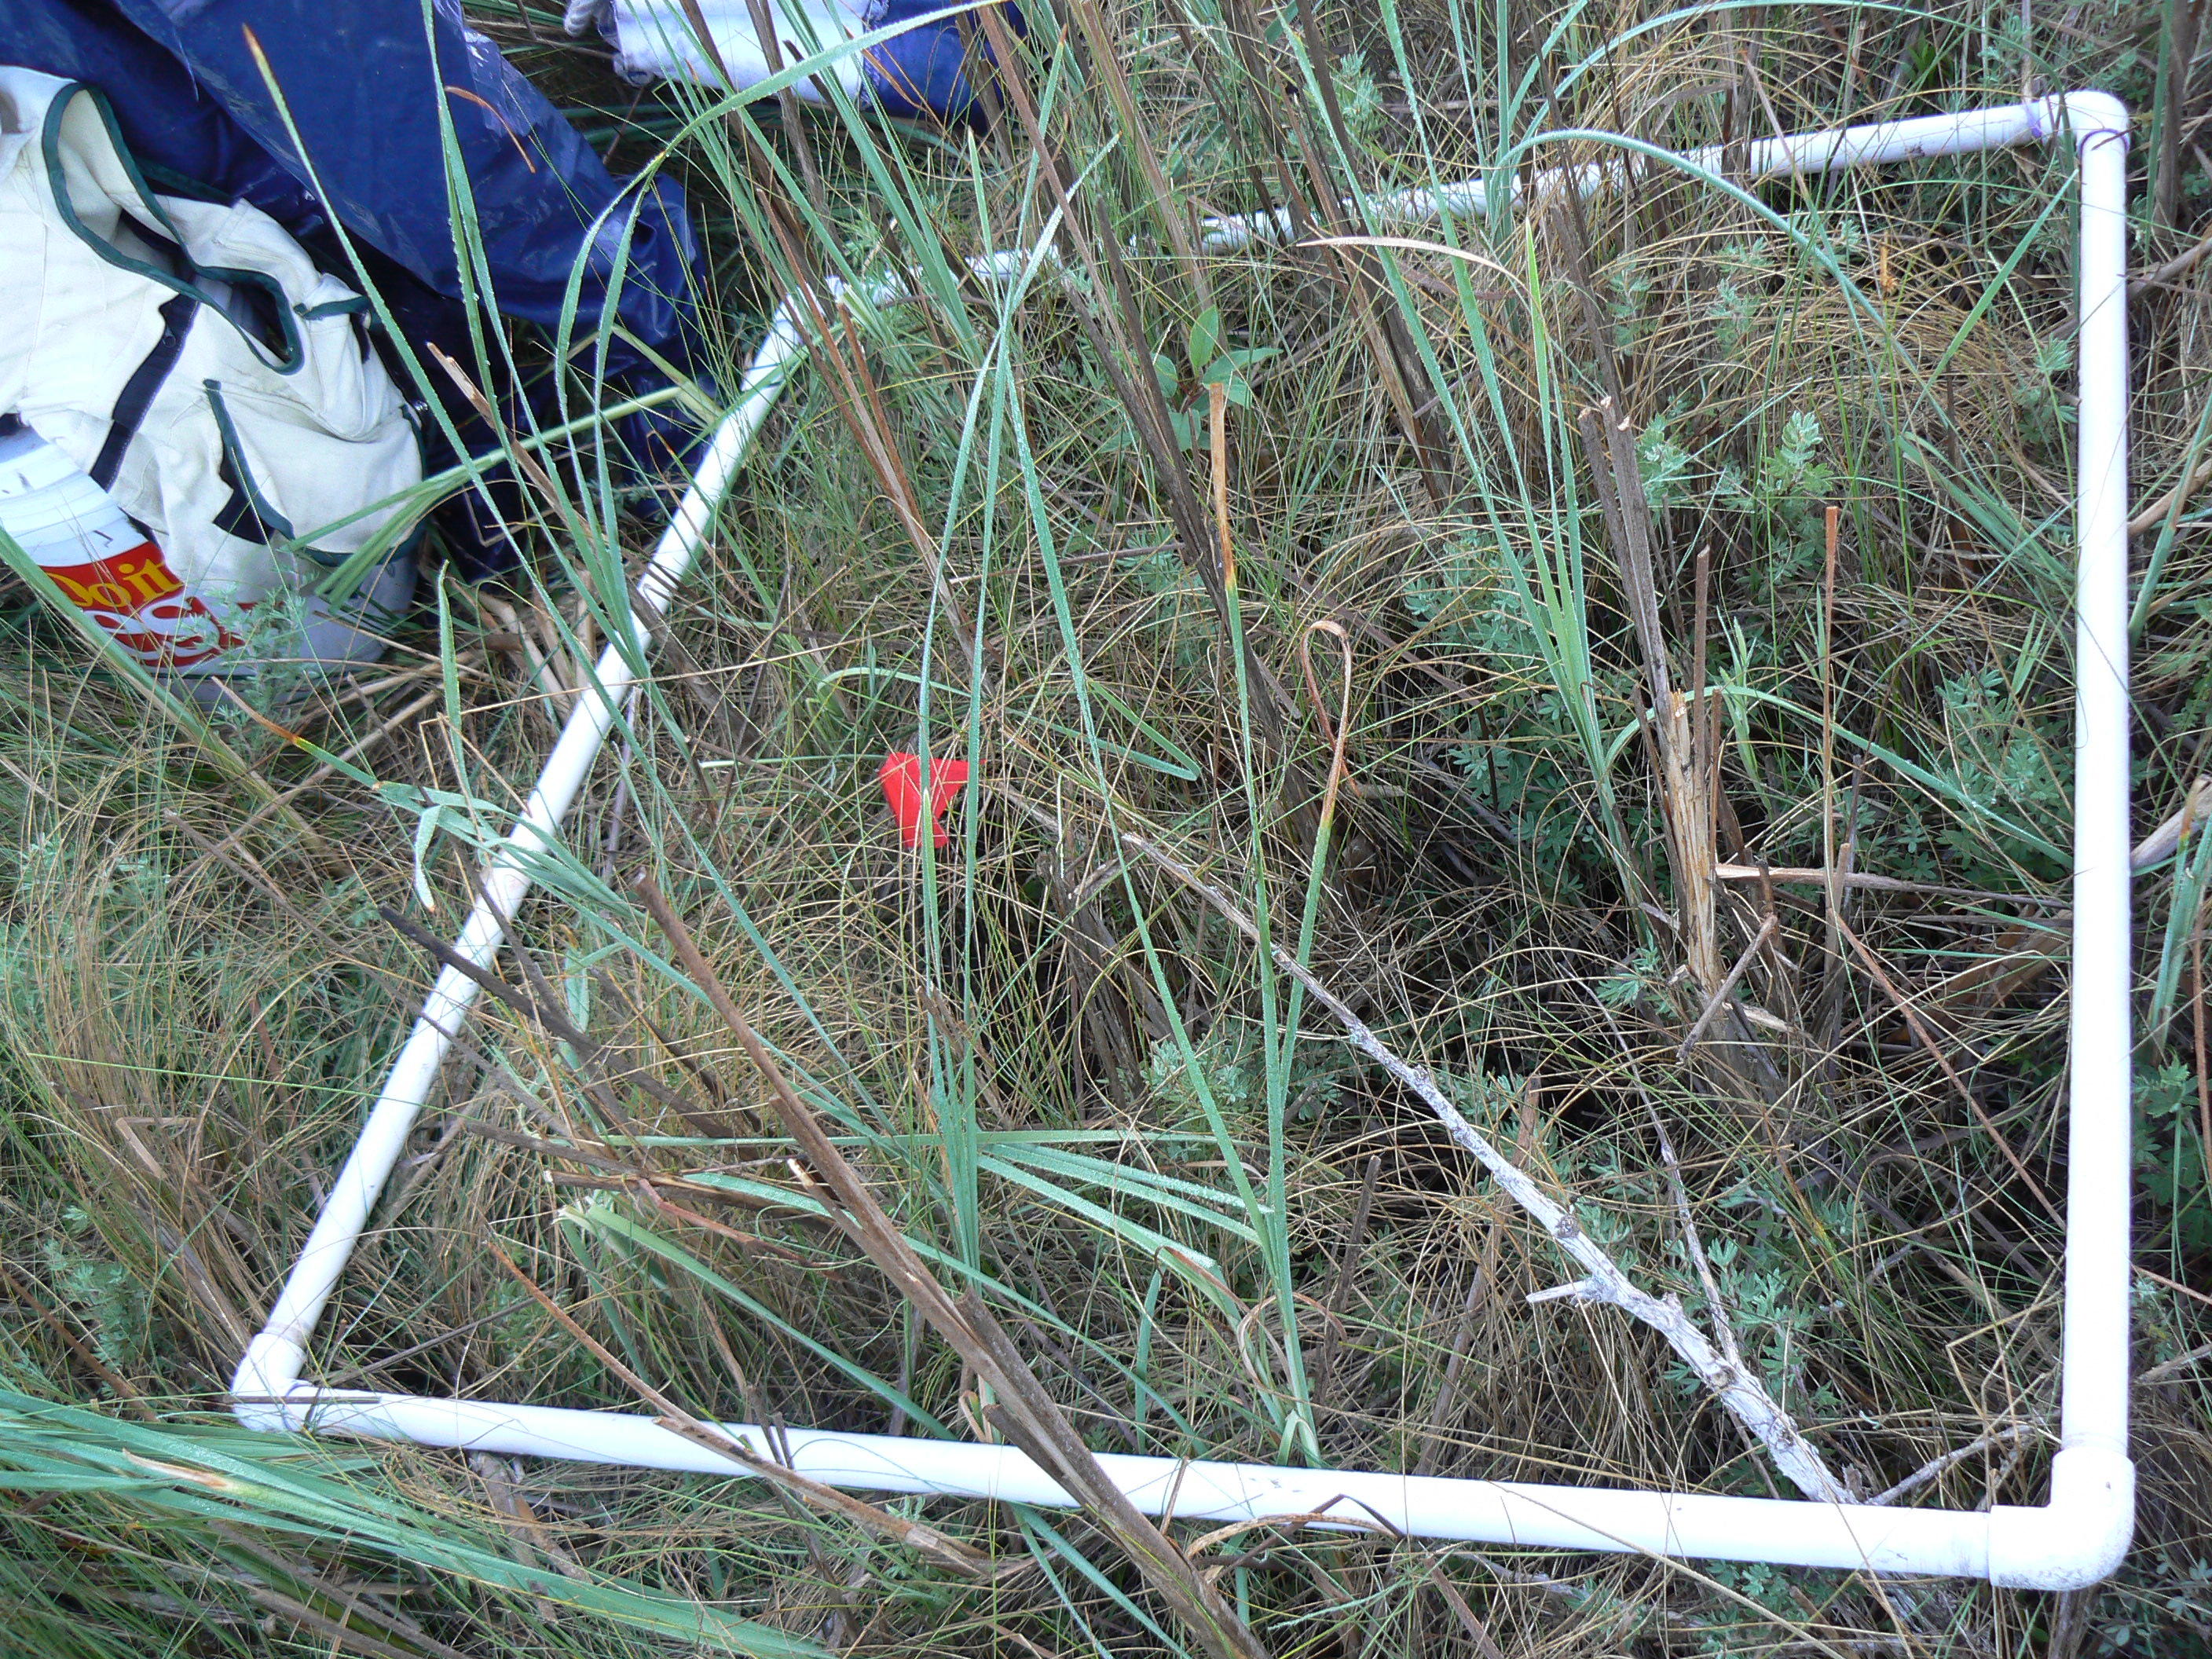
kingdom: Plantae
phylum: Tracheophyta
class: Liliopsida
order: Poales
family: Cyperaceae
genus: Carex
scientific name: Carex flava
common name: Large yellow-sedge
